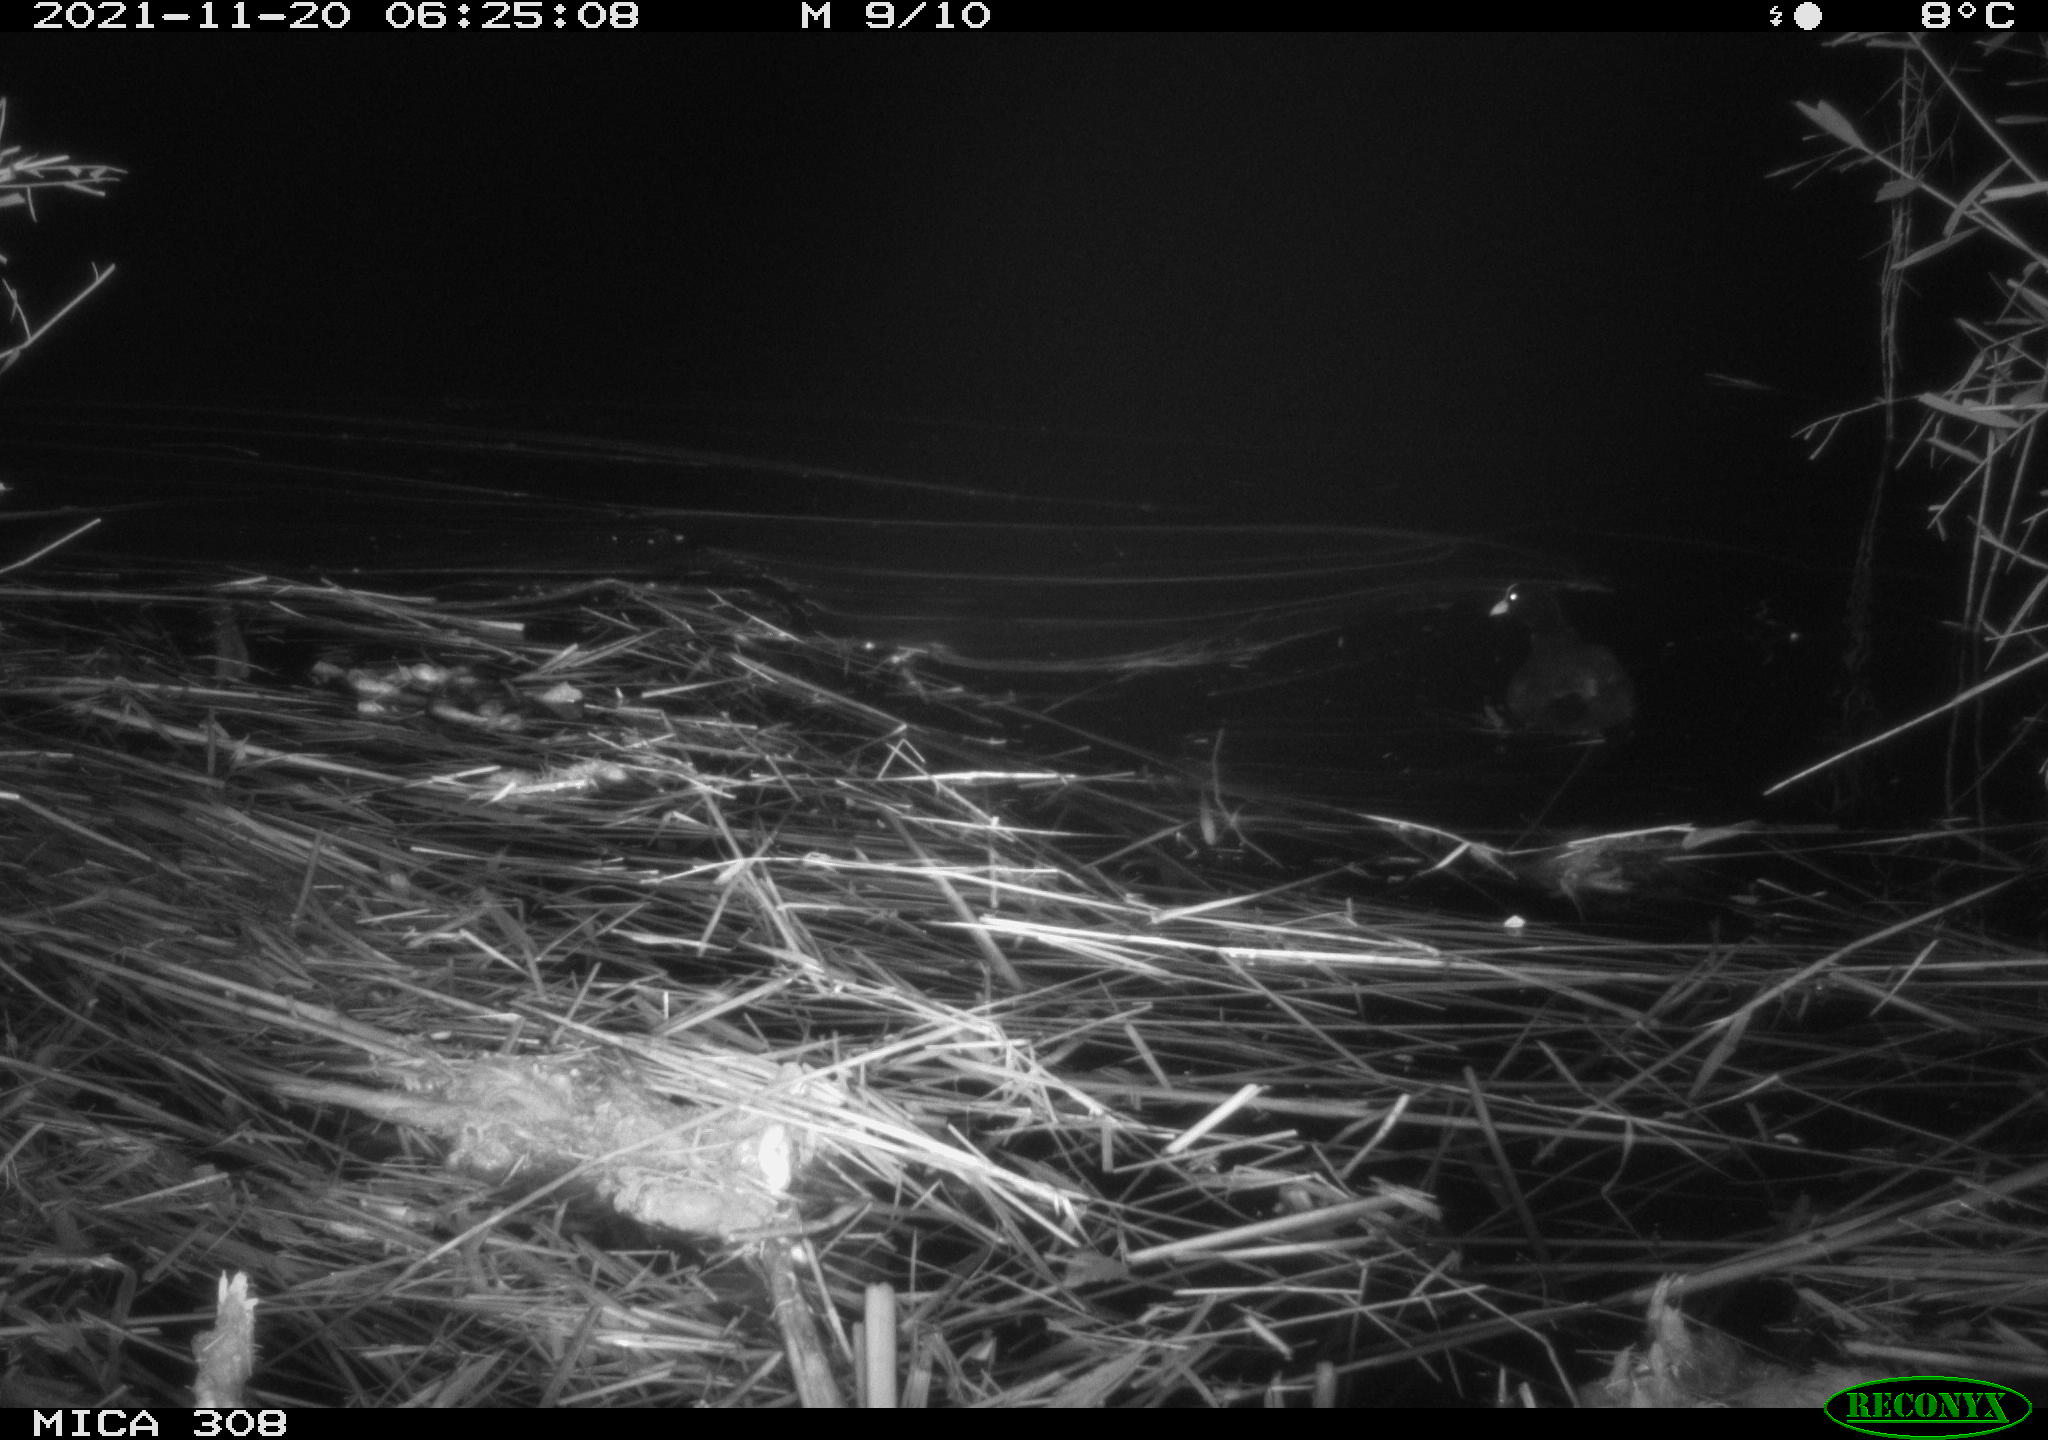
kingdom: Animalia
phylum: Chordata
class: Aves
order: Gruiformes
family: Rallidae
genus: Gallinula
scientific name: Gallinula chloropus
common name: Common moorhen
